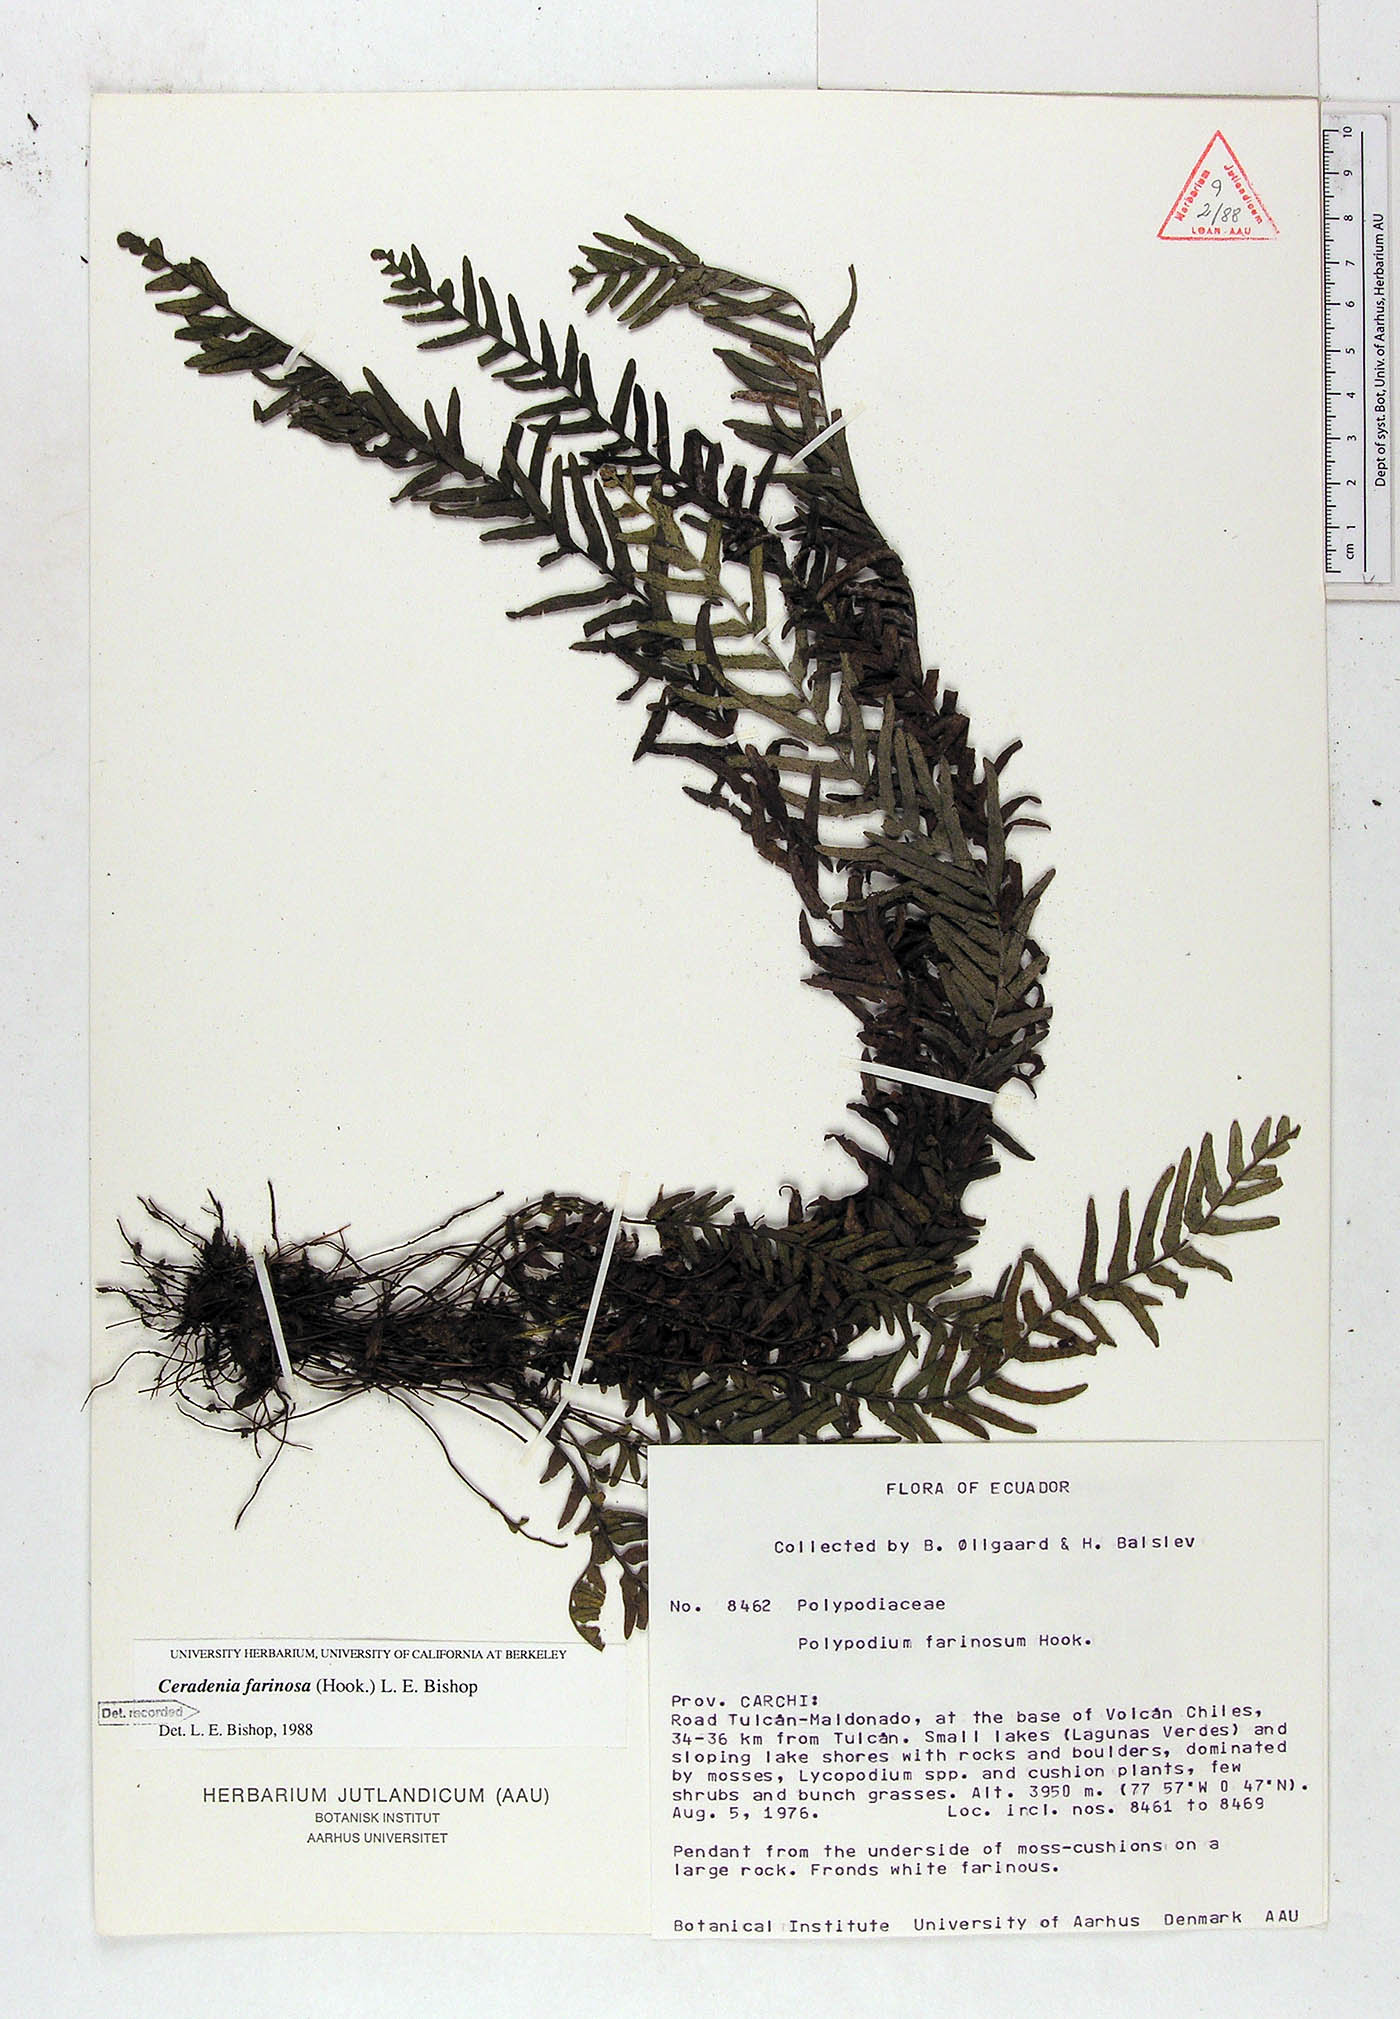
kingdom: Plantae
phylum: Tracheophyta
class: Polypodiopsida
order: Polypodiales
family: Polypodiaceae
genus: Ceradenia
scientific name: Ceradenia farinosa
